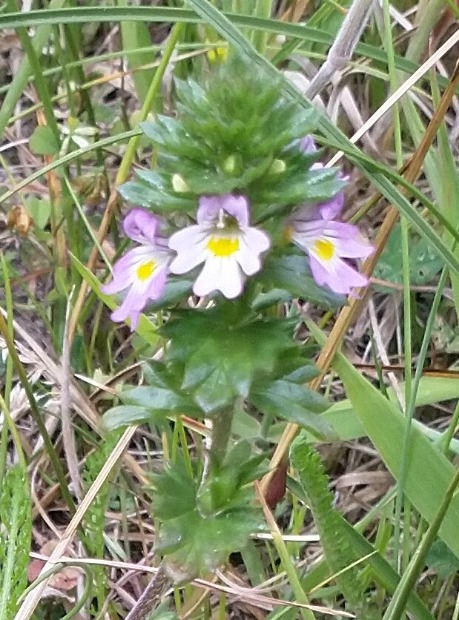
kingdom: Plantae
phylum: Tracheophyta
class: Magnoliopsida
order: Lamiales
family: Orobanchaceae
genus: Euphrasia
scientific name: Euphrasia
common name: Øjentrøstslægten
